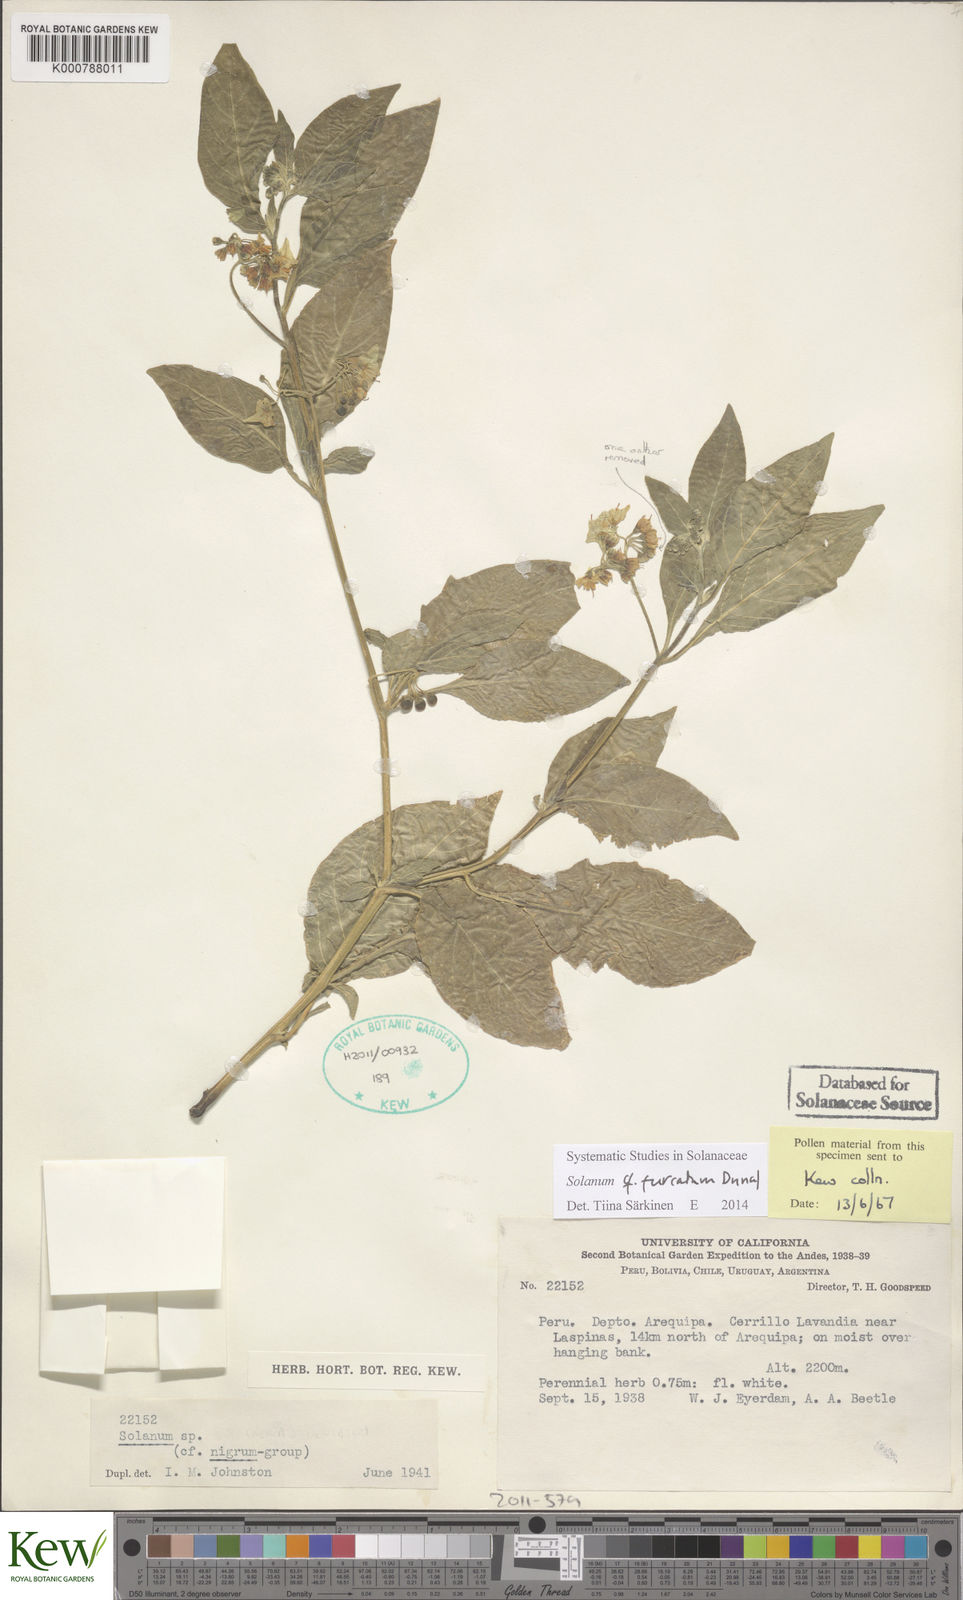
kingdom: Plantae
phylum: Tracheophyta
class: Magnoliopsida
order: Solanales
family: Solanaceae
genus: Solanum
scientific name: Solanum
